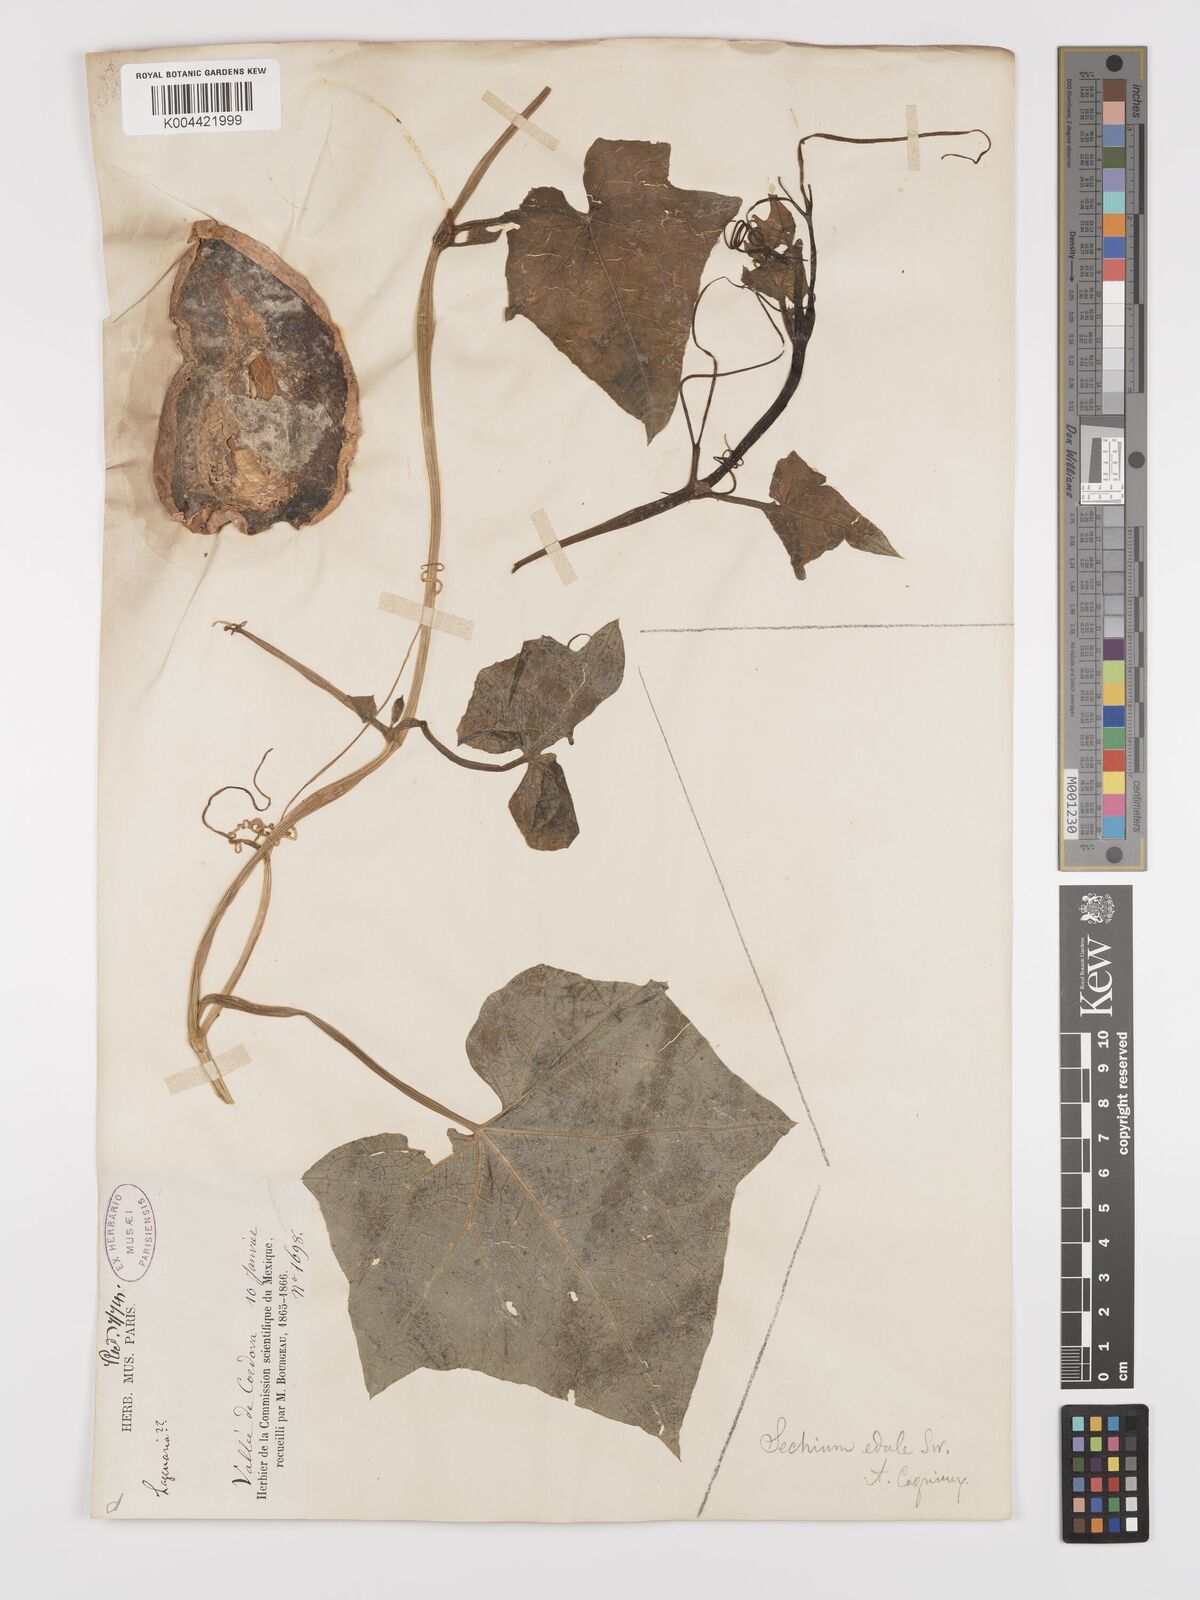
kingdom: Plantae
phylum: Tracheophyta
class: Magnoliopsida
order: Cucurbitales
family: Cucurbitaceae
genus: Sechium
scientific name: Sechium edule
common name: Chayote
